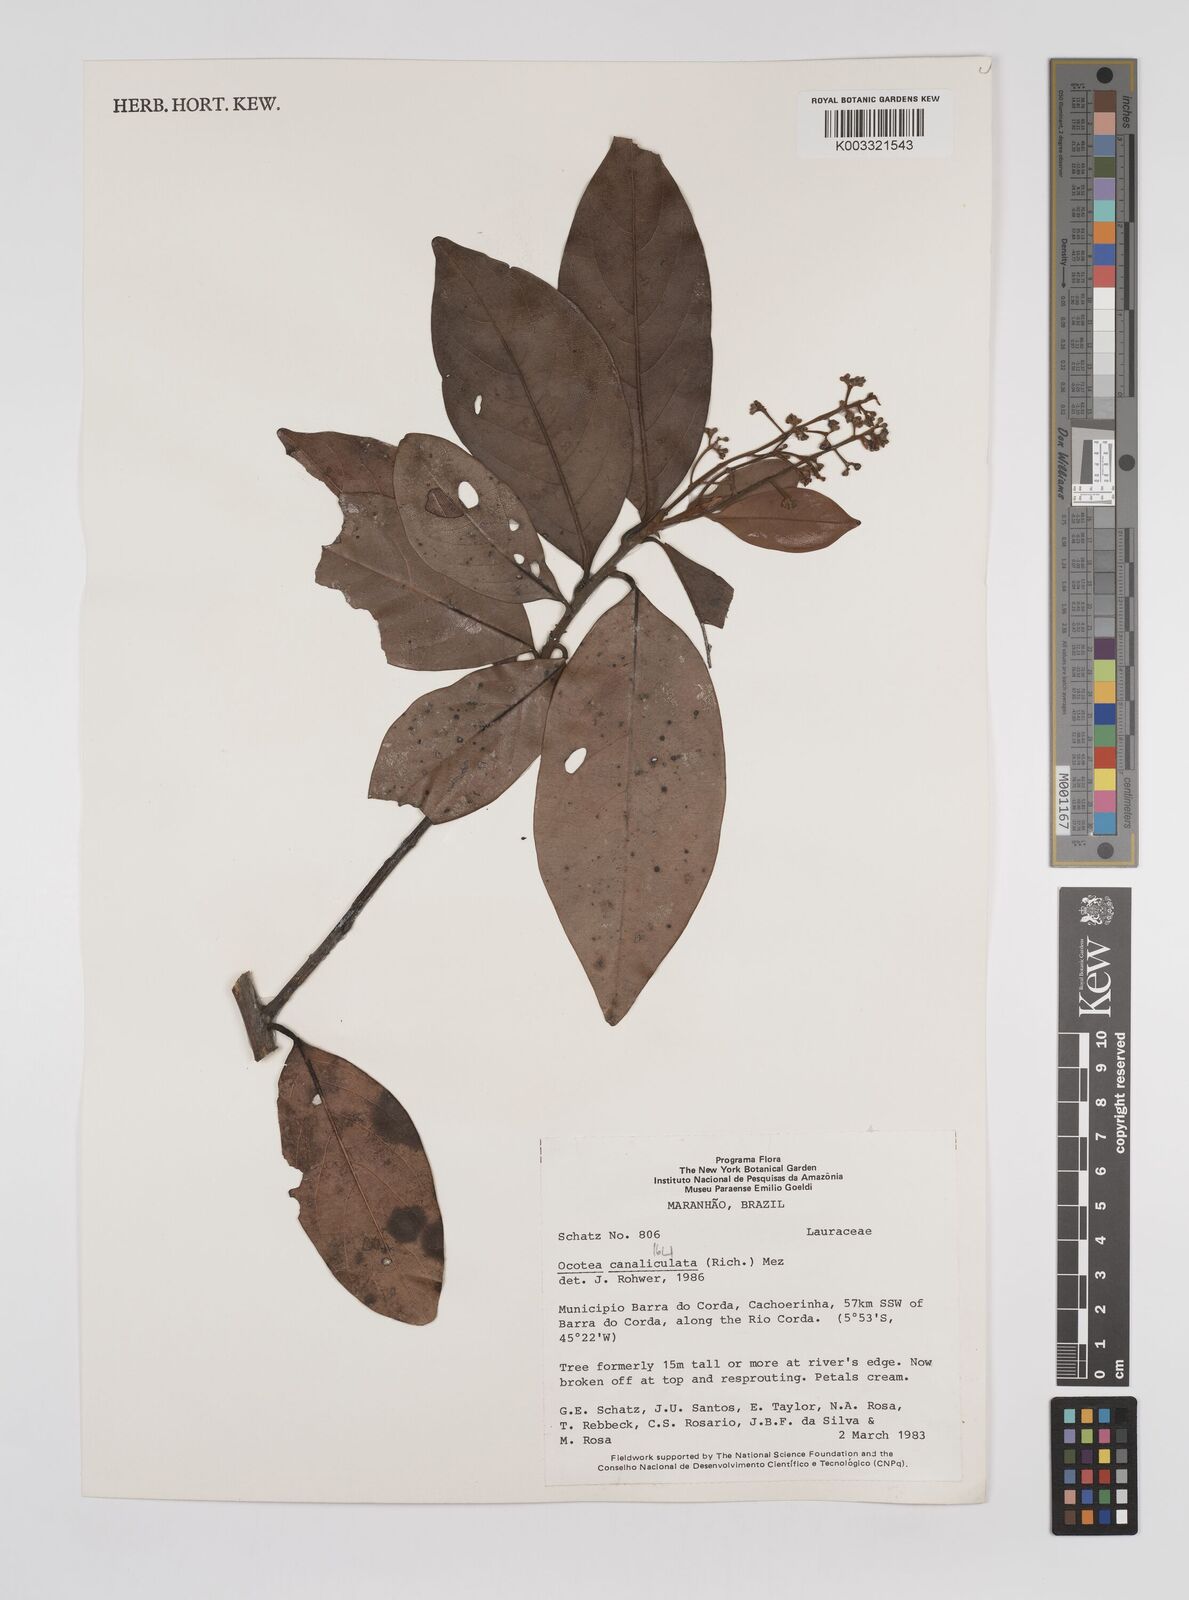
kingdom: Plantae
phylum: Tracheophyta
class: Magnoliopsida
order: Laurales
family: Lauraceae
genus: Ocotea
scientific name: Ocotea canaliculata
